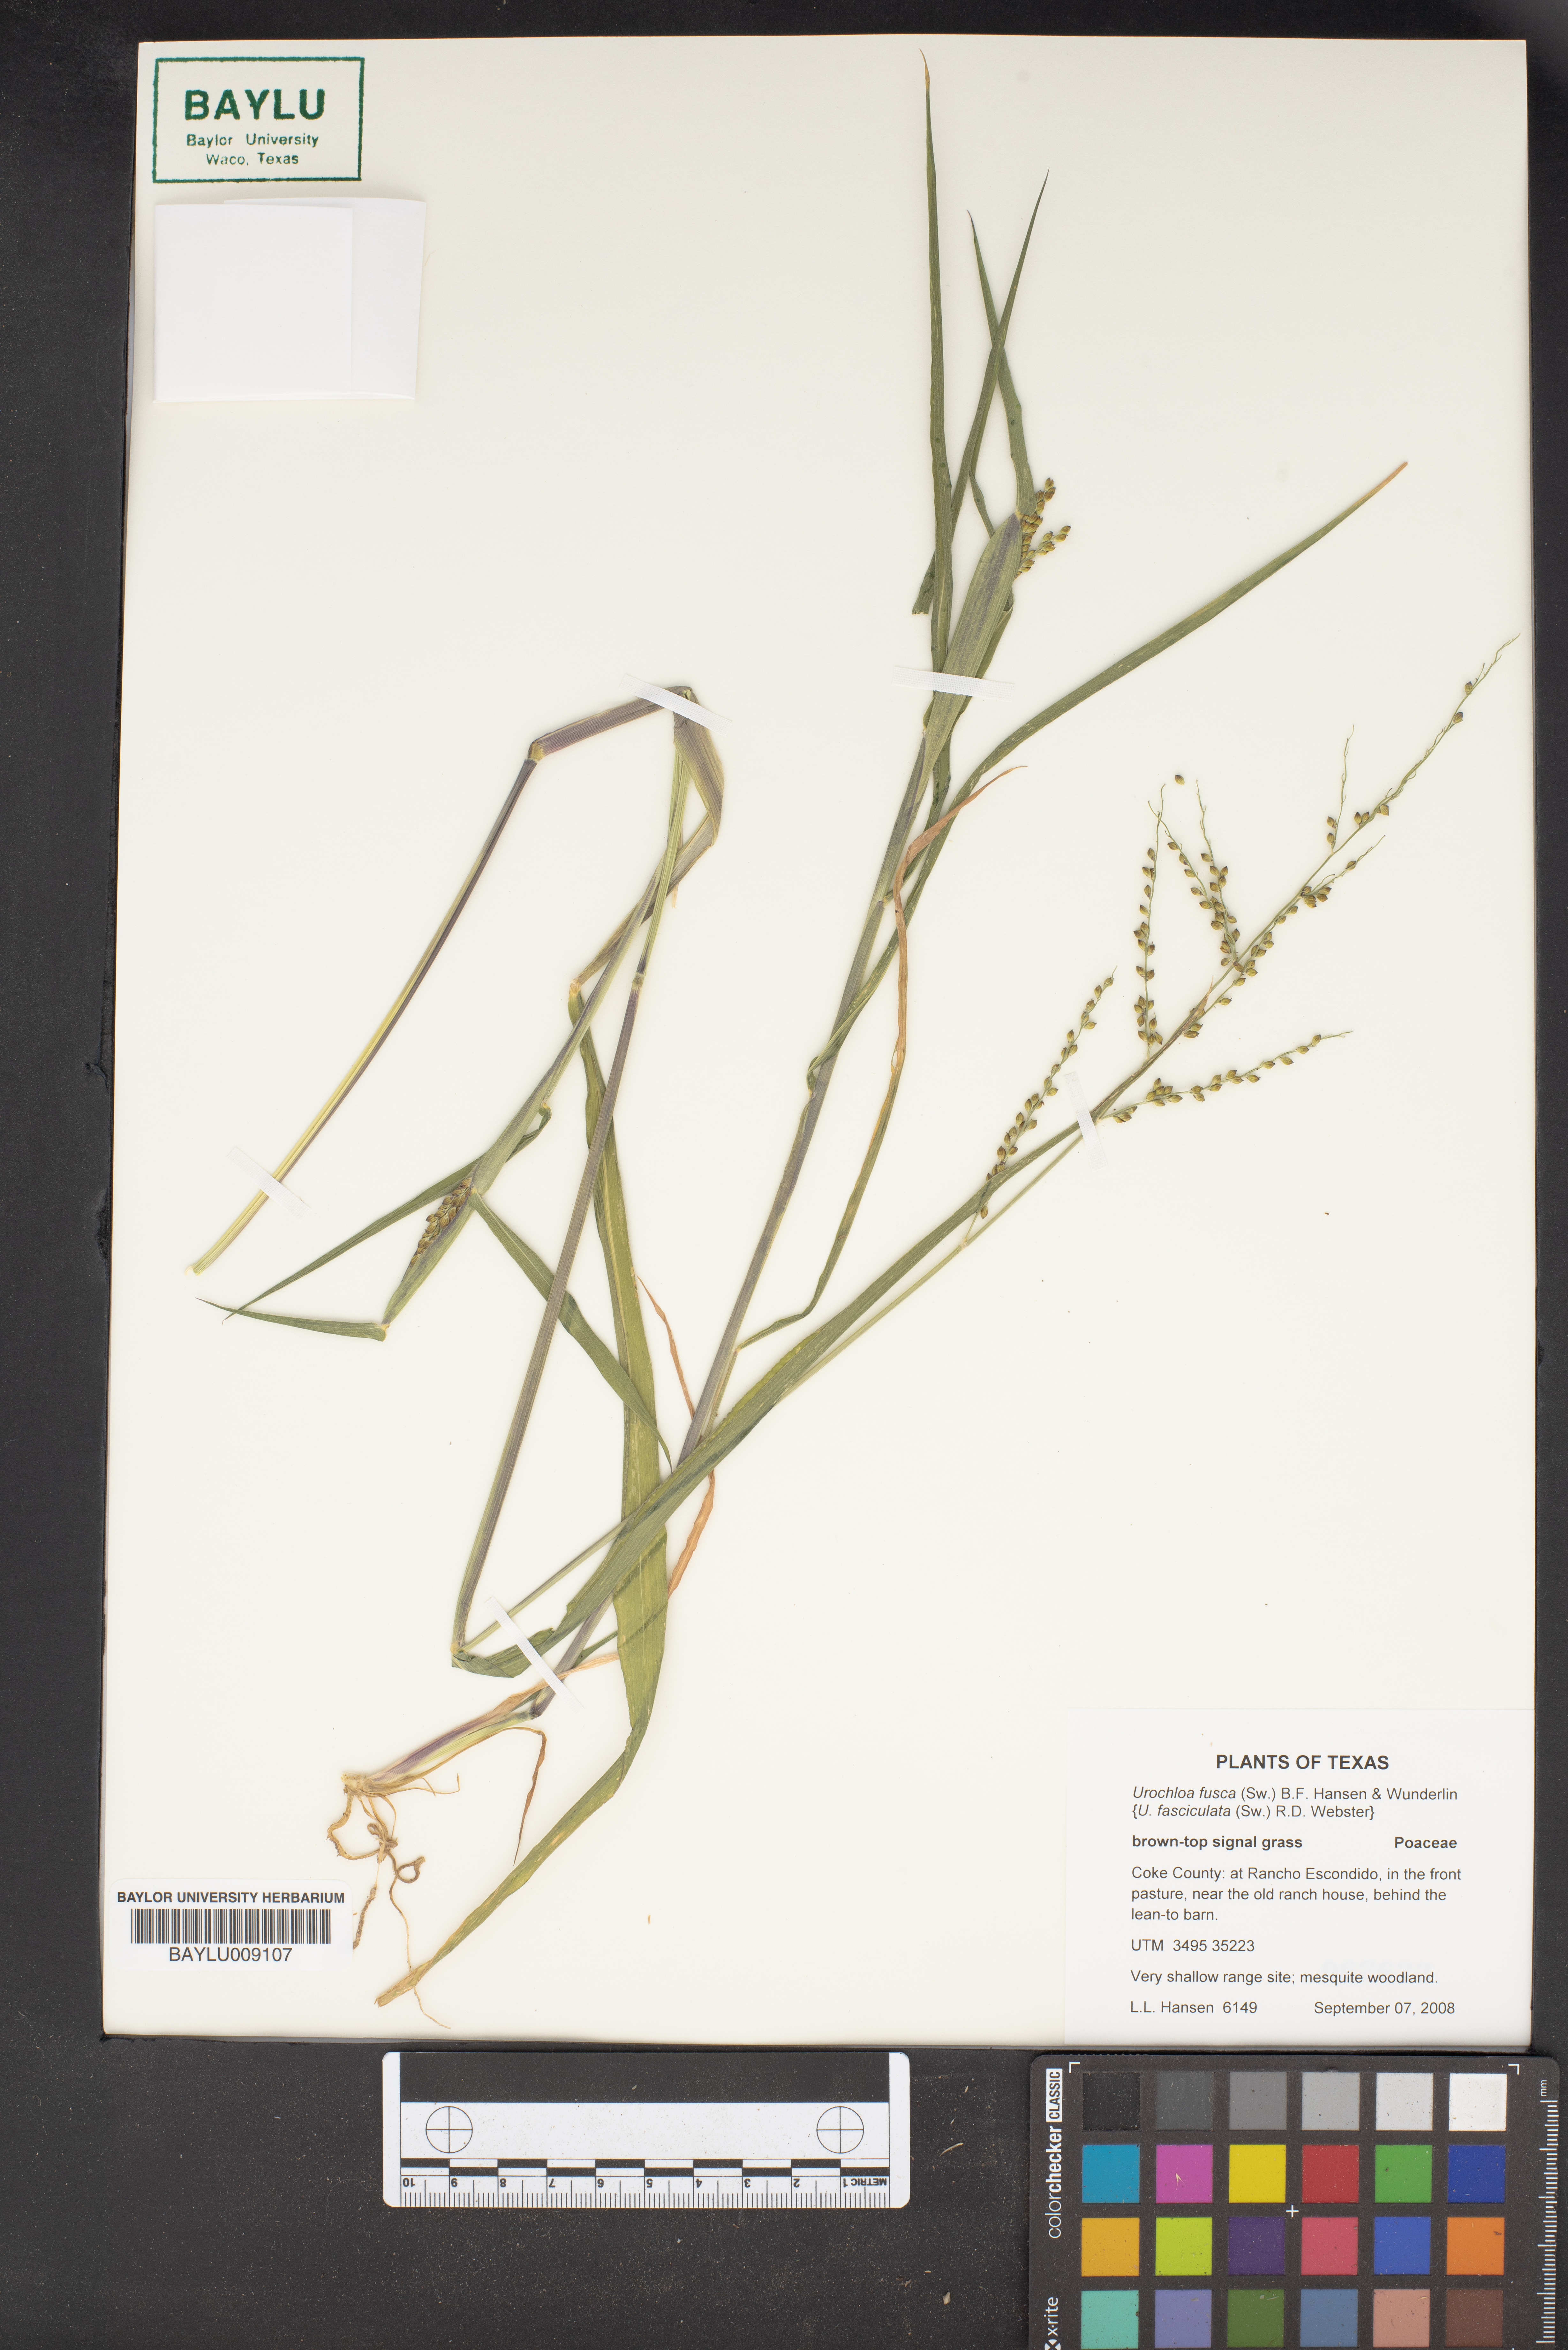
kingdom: Plantae
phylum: Tracheophyta
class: Liliopsida
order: Poales
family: Poaceae
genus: Urochloa
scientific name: Urochloa fusca
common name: Browntop signal grass
